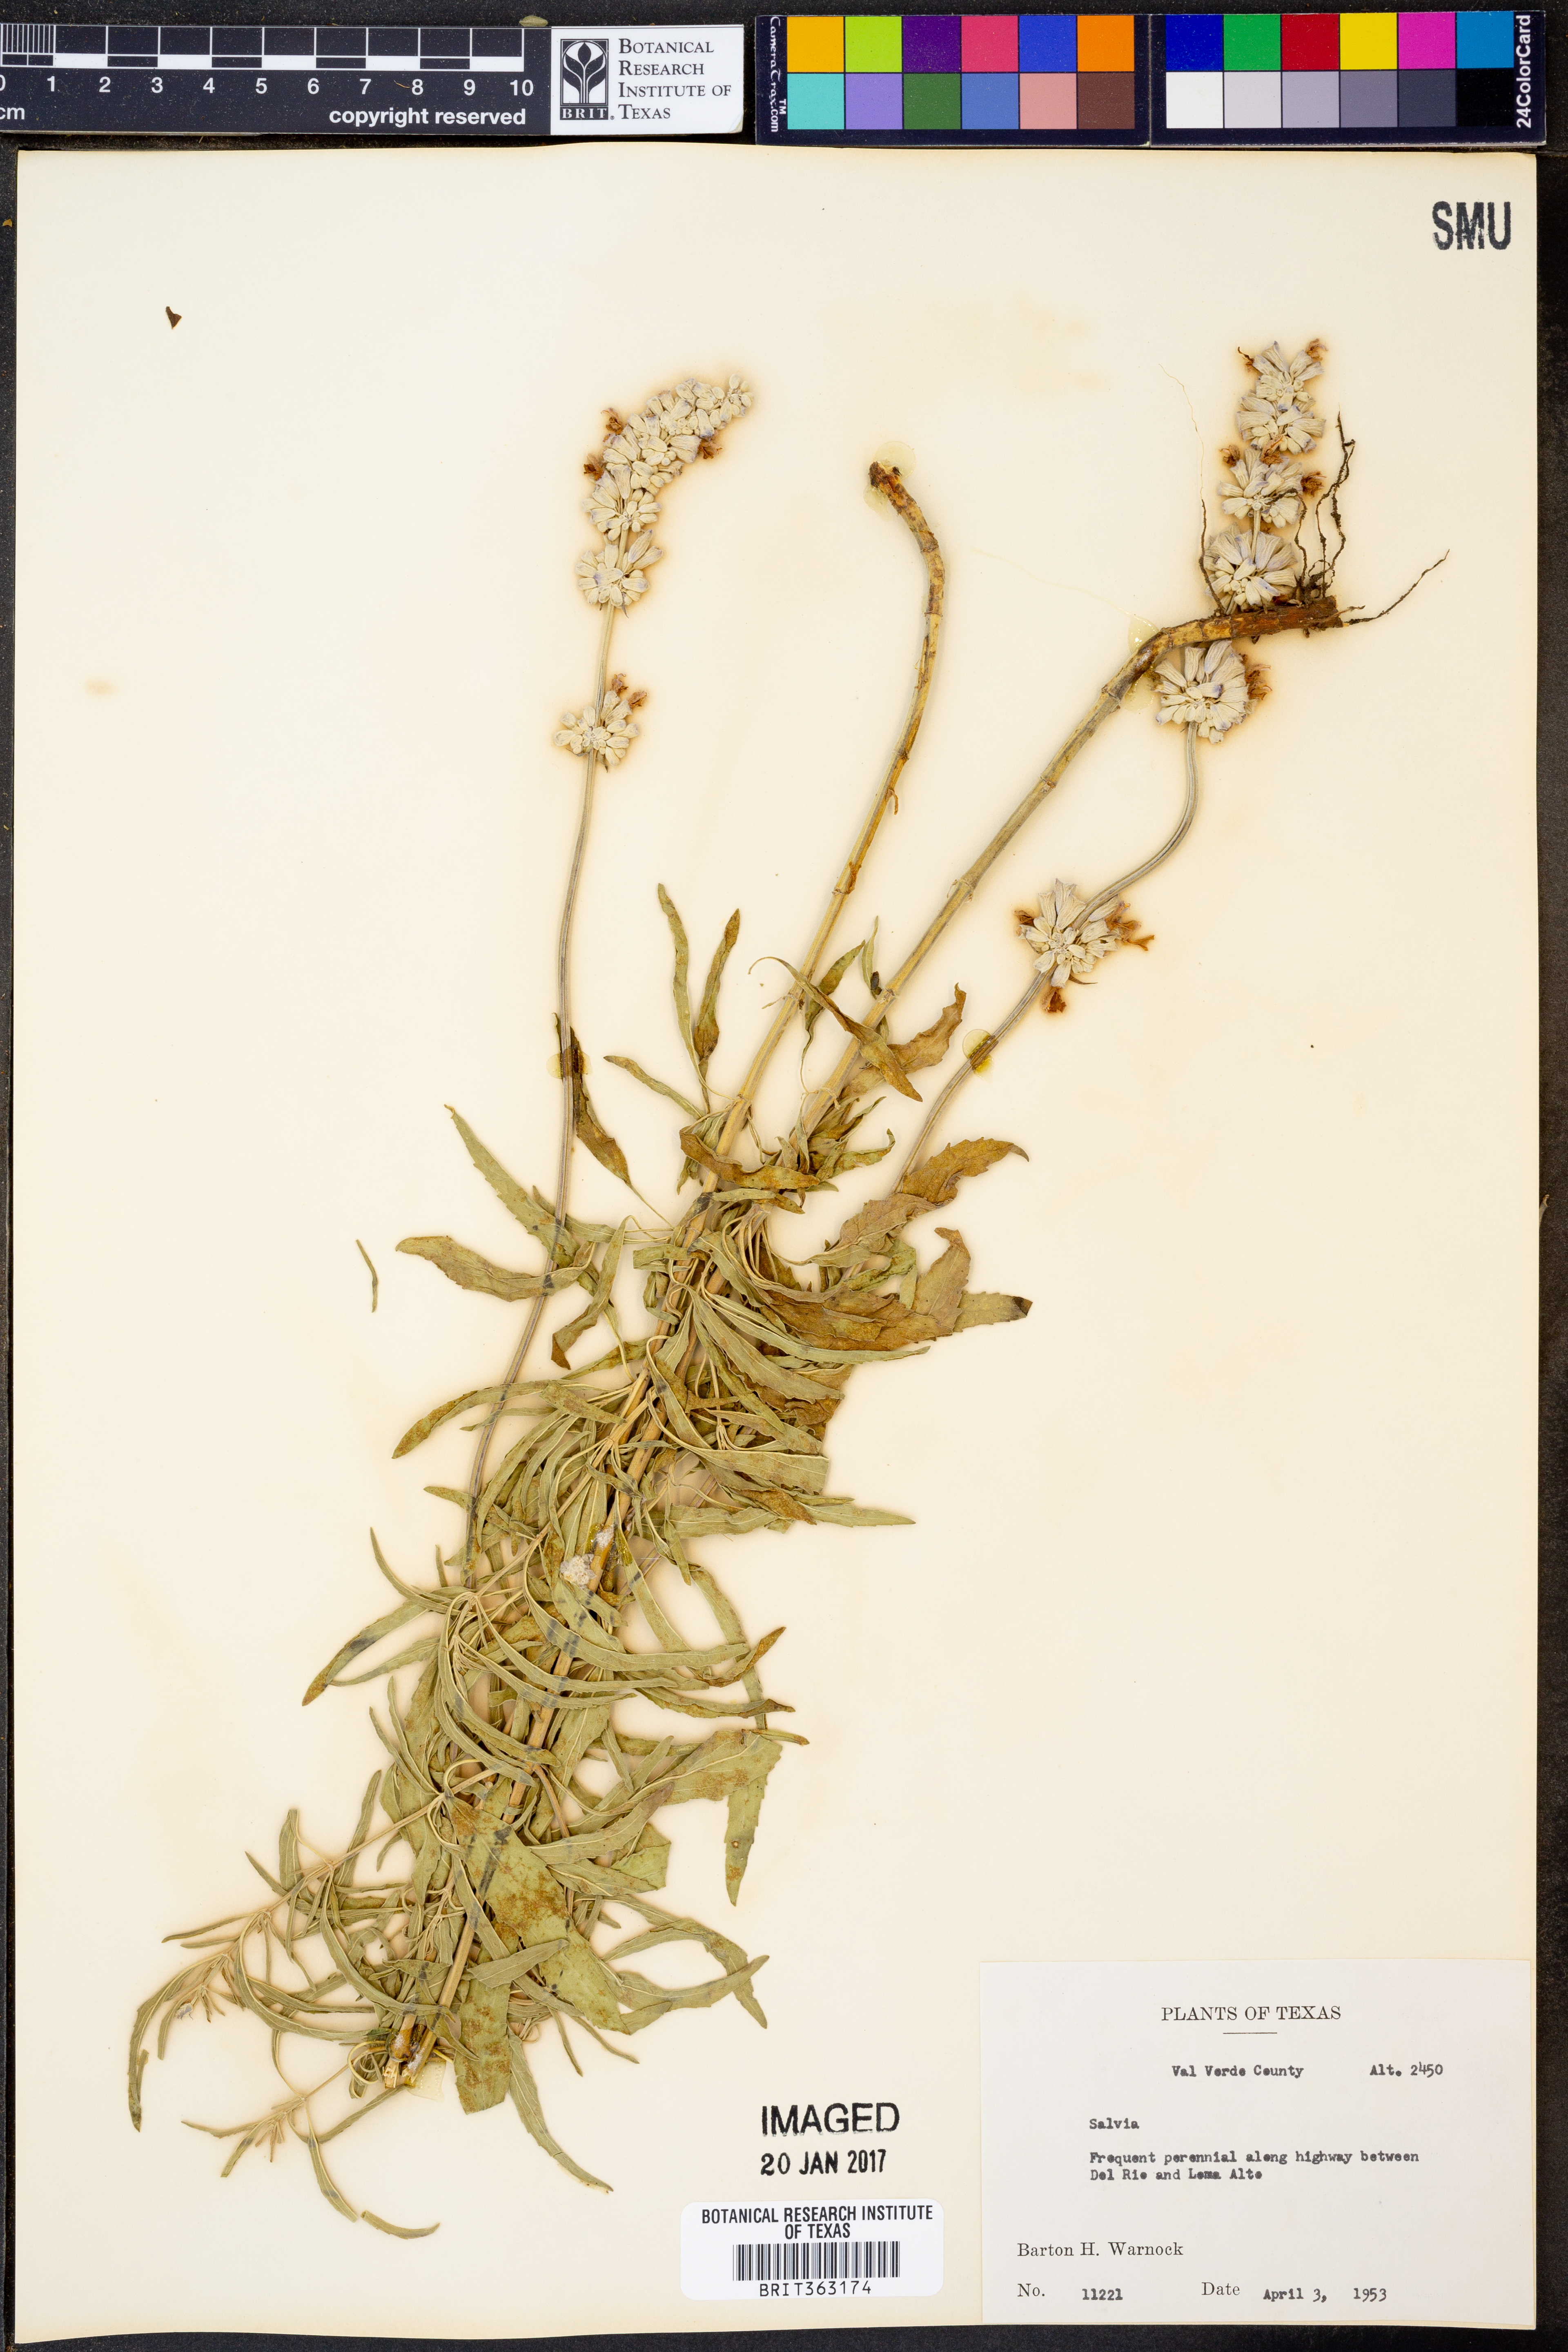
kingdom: Plantae
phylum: Tracheophyta
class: Magnoliopsida
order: Lamiales
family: Lamiaceae
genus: Salvia
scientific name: Salvia
